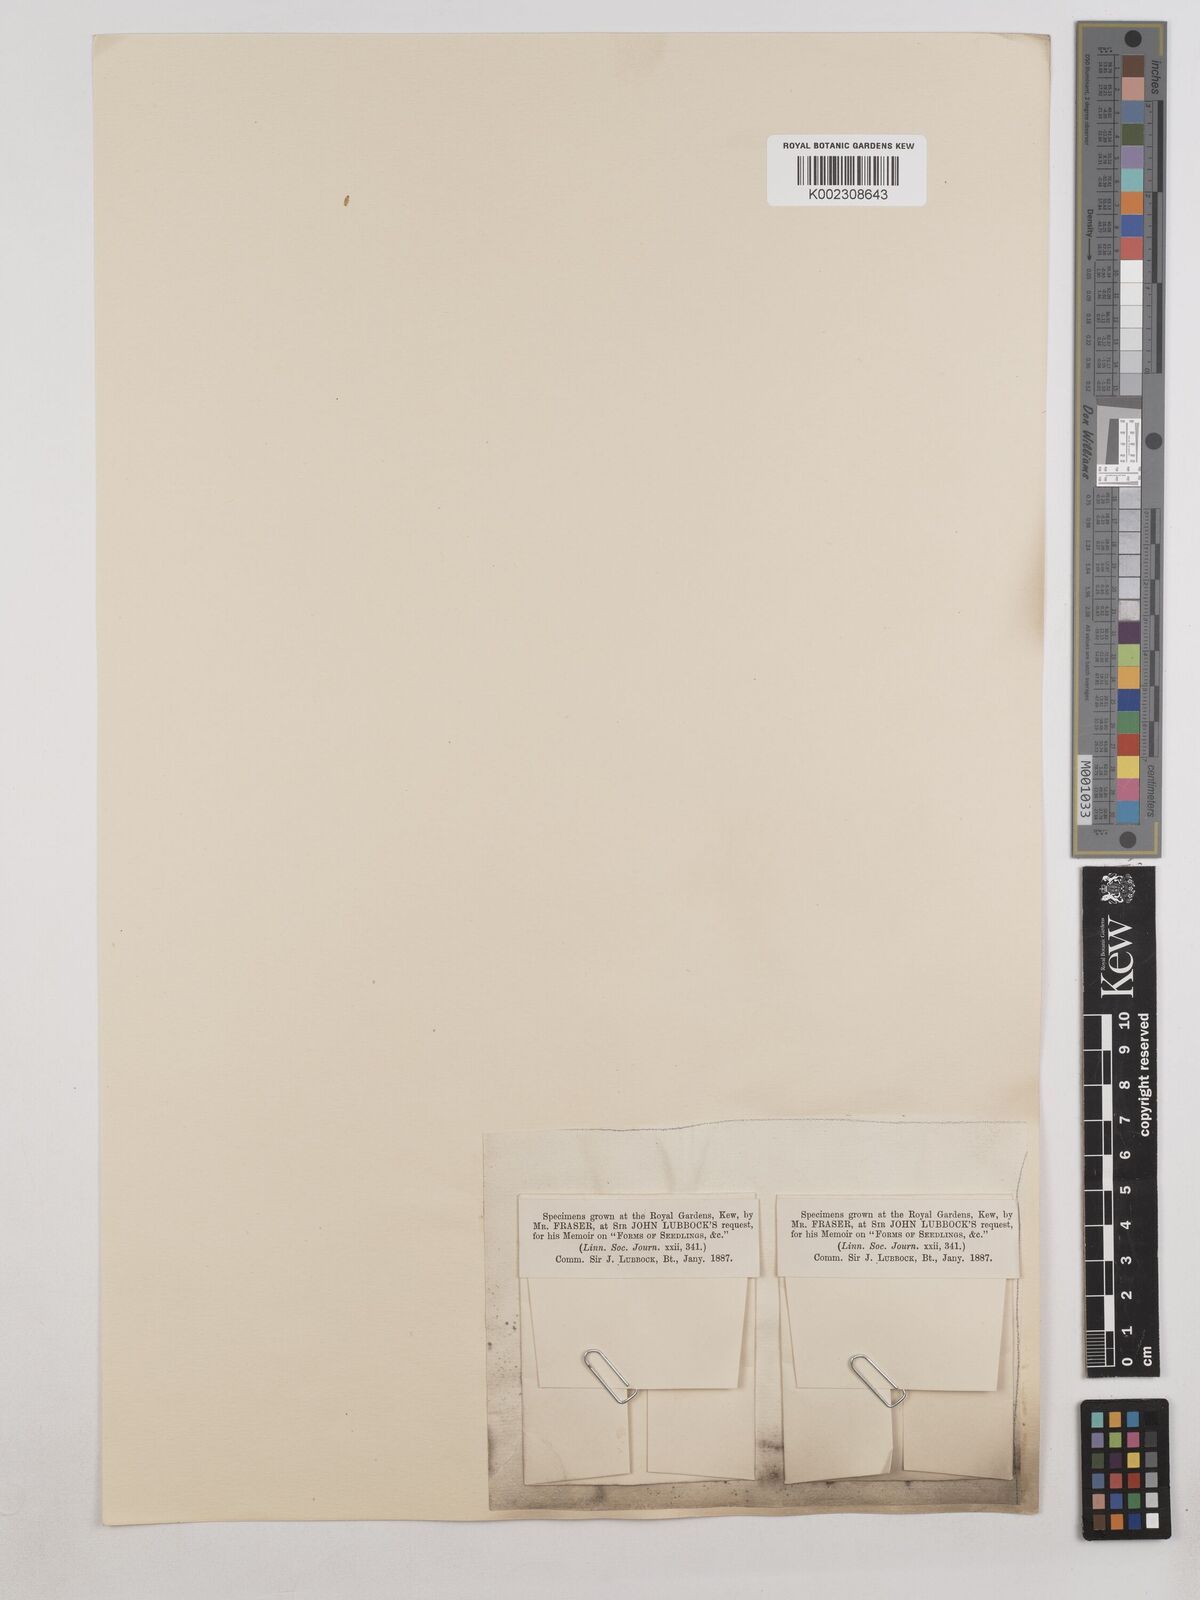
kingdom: Plantae
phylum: Tracheophyta
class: Magnoliopsida
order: Asterales
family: Asteraceae
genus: Achillea
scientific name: Achillea millefolium
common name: Yarrow
